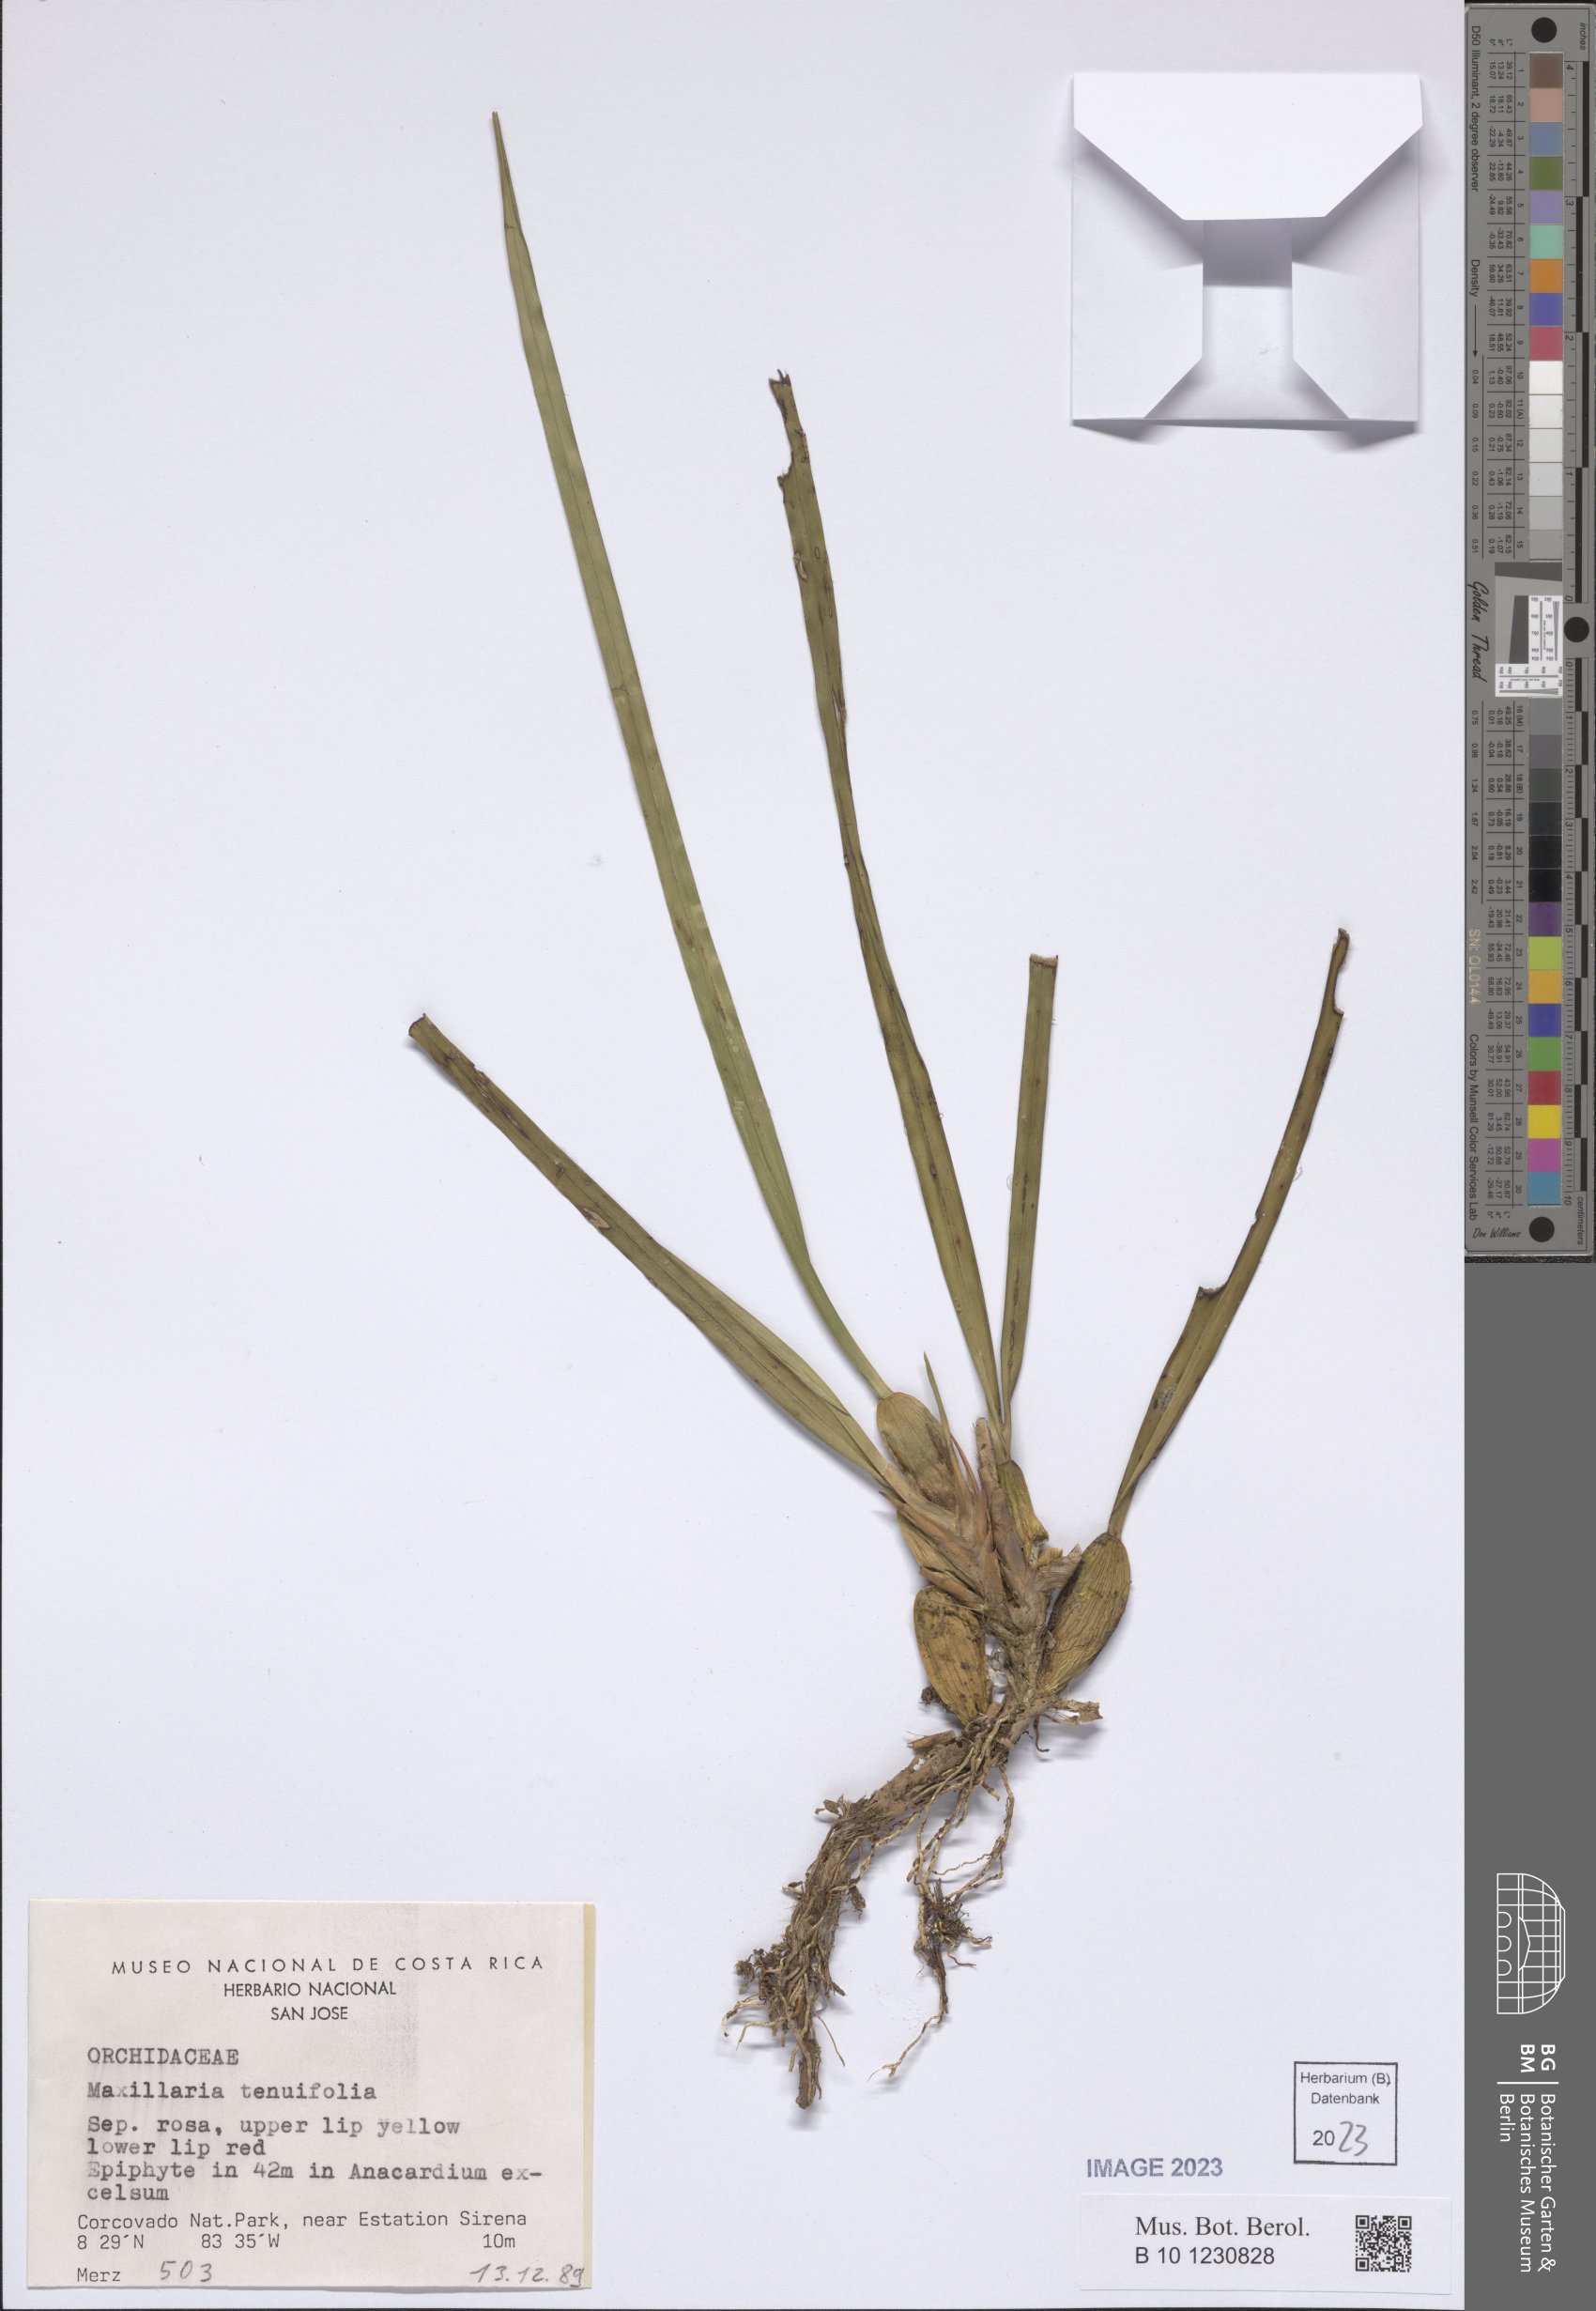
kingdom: Plantae
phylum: Tracheophyta
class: Liliopsida
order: Asparagales
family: Orchidaceae
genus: Maxillaria
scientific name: Maxillaria tenuifolia
